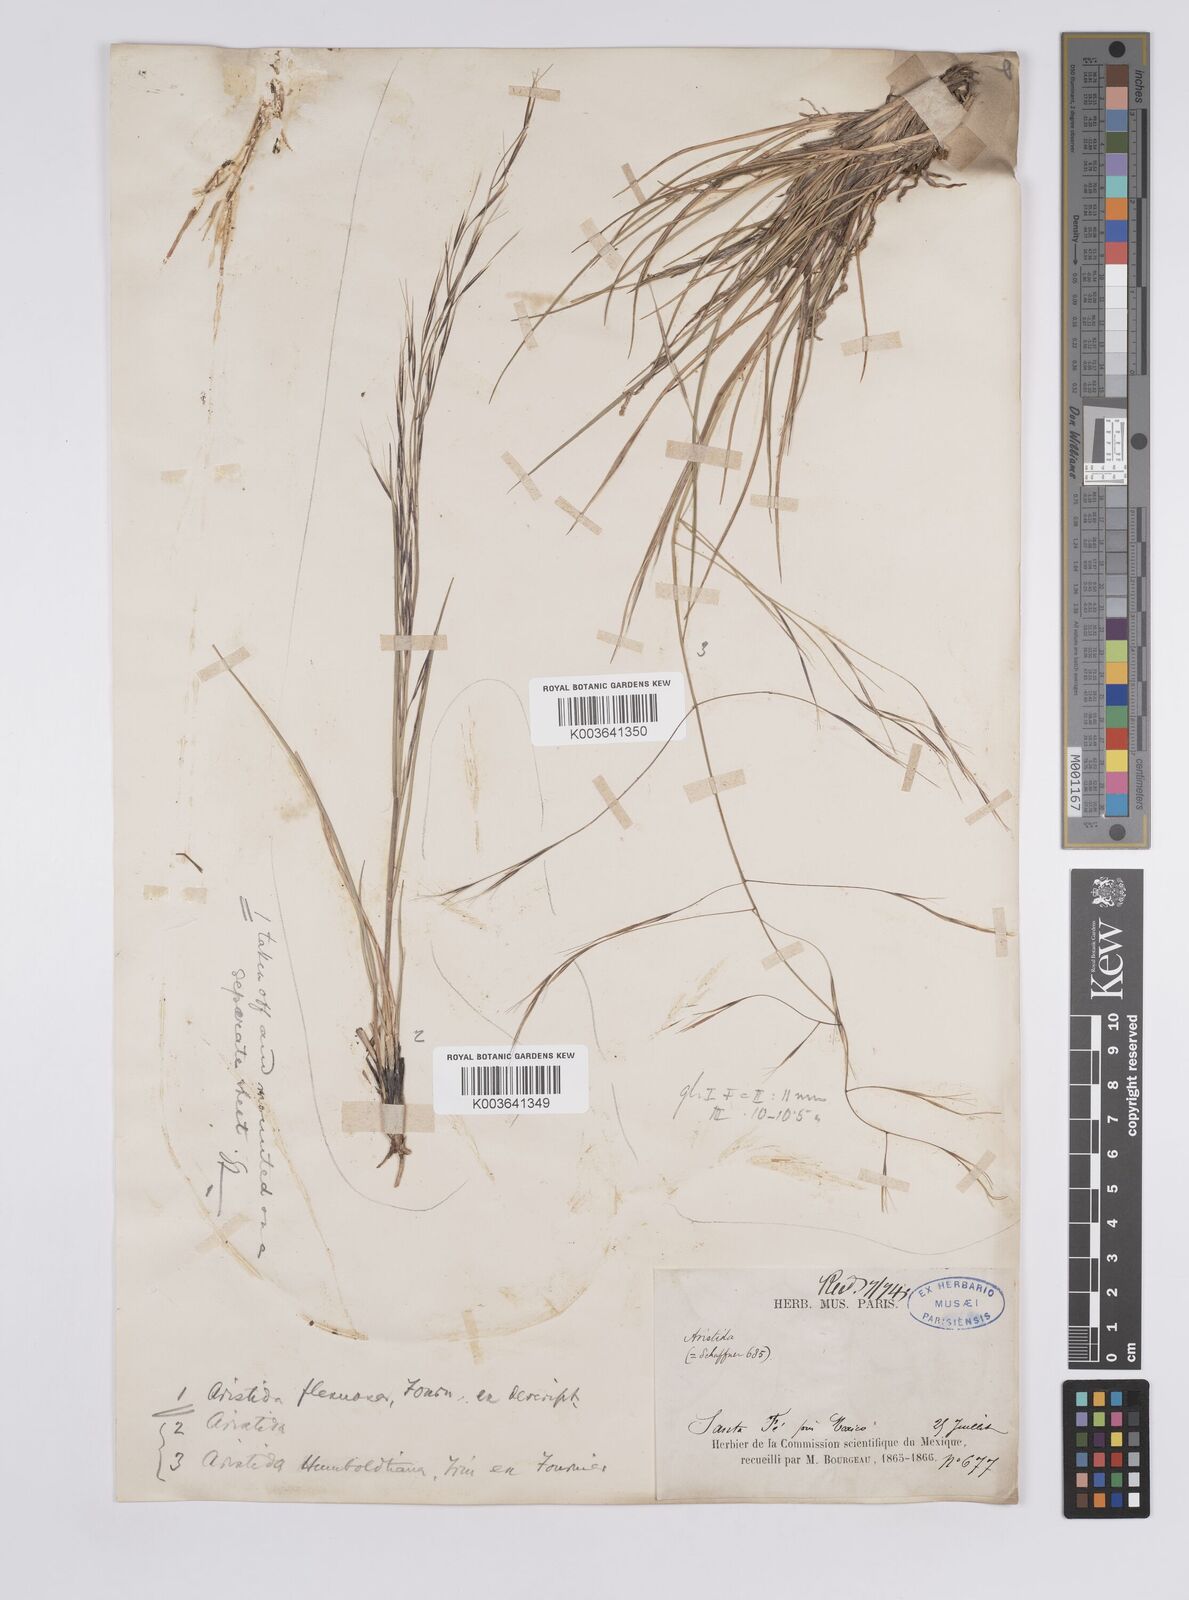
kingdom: Plantae
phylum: Tracheophyta
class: Liliopsida
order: Poales
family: Poaceae
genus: Aristida
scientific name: Aristida divaricata
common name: Poverty grass
